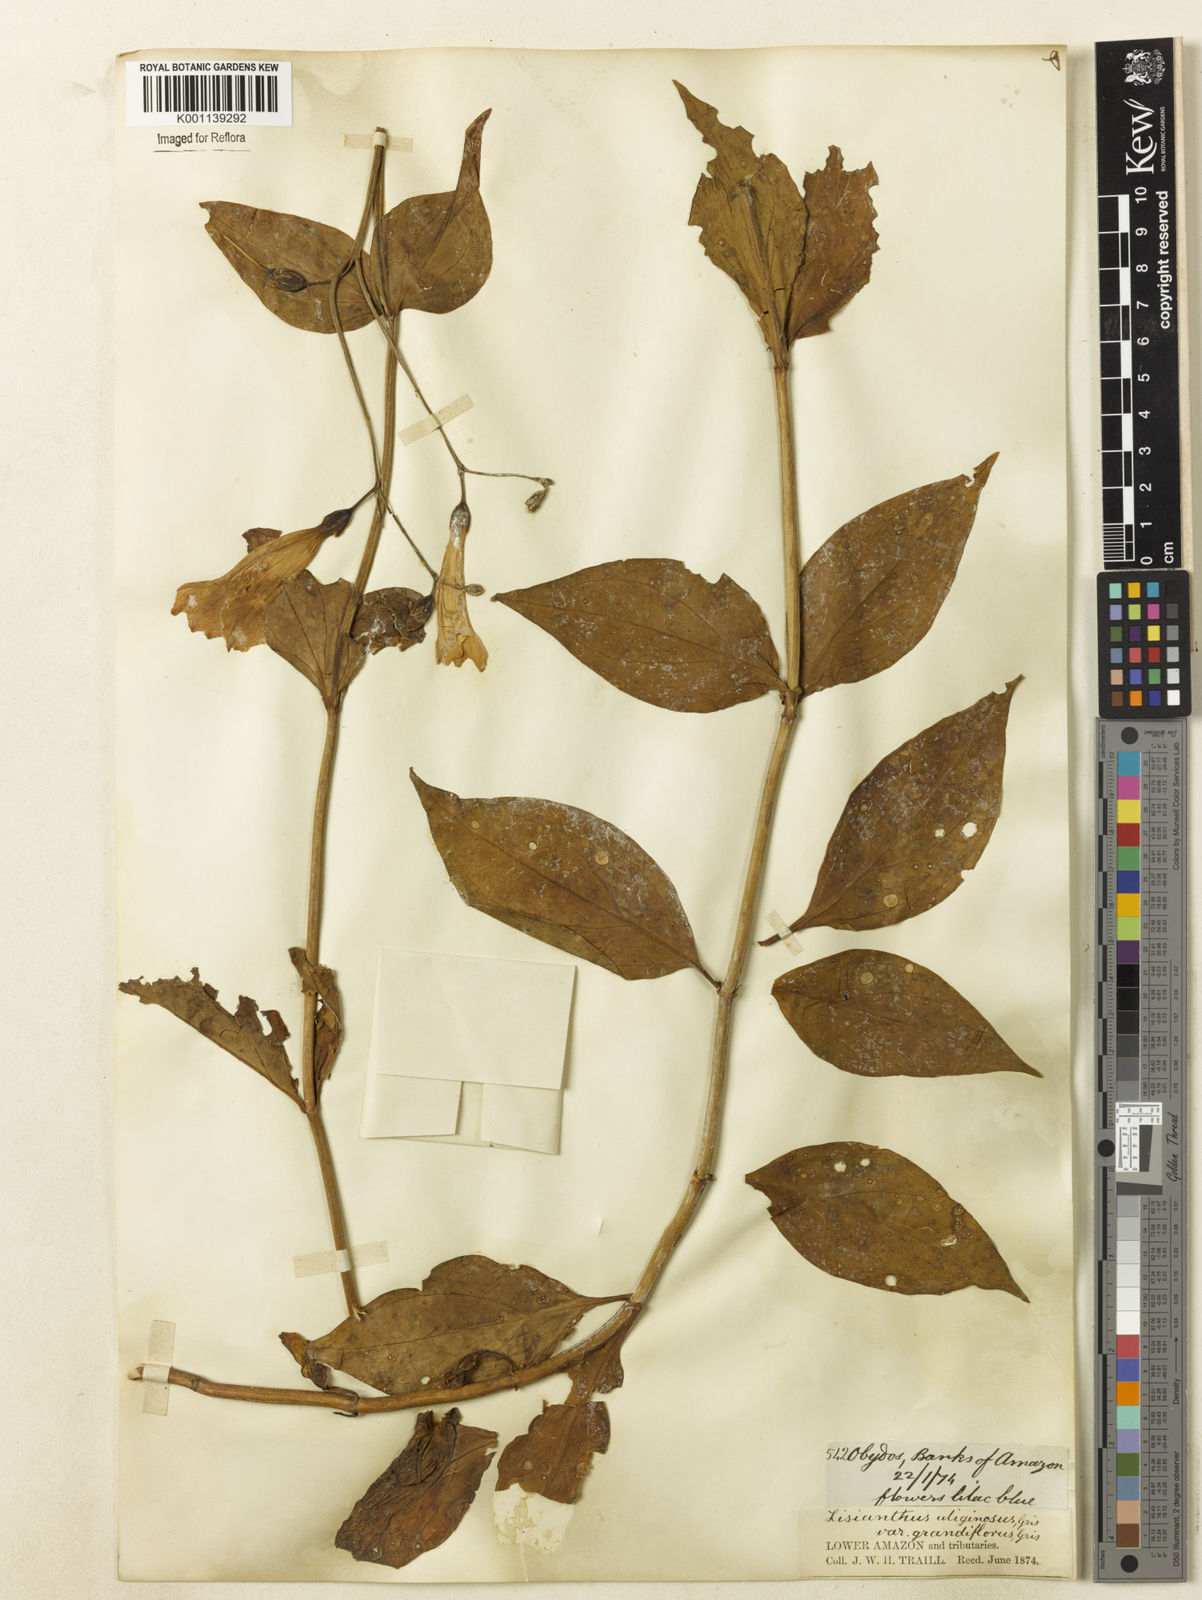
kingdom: Plantae
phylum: Tracheophyta
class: Magnoliopsida
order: Gentianales
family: Gentianaceae
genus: Chelonanthus
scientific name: Chelonanthus purpurascens
